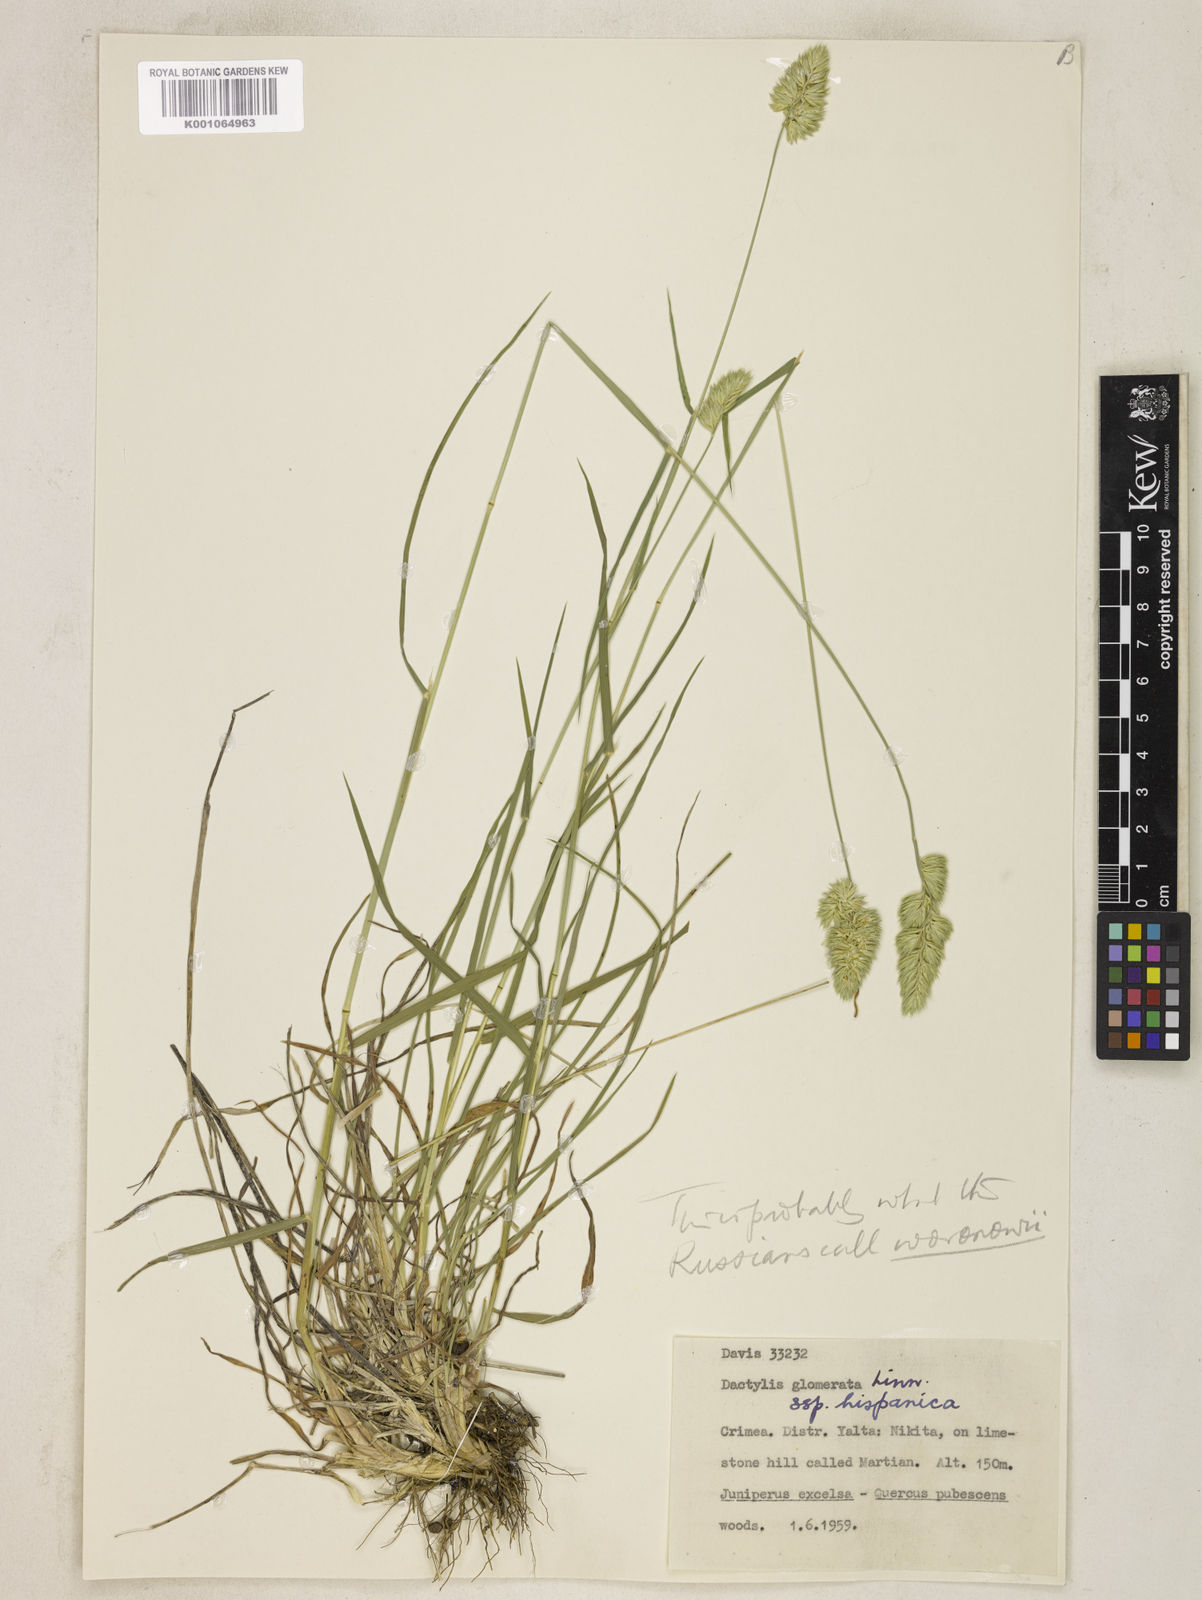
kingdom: Plantae
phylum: Tracheophyta
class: Liliopsida
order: Poales
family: Poaceae
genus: Dactylis
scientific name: Dactylis glomerata
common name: Orchardgrass
